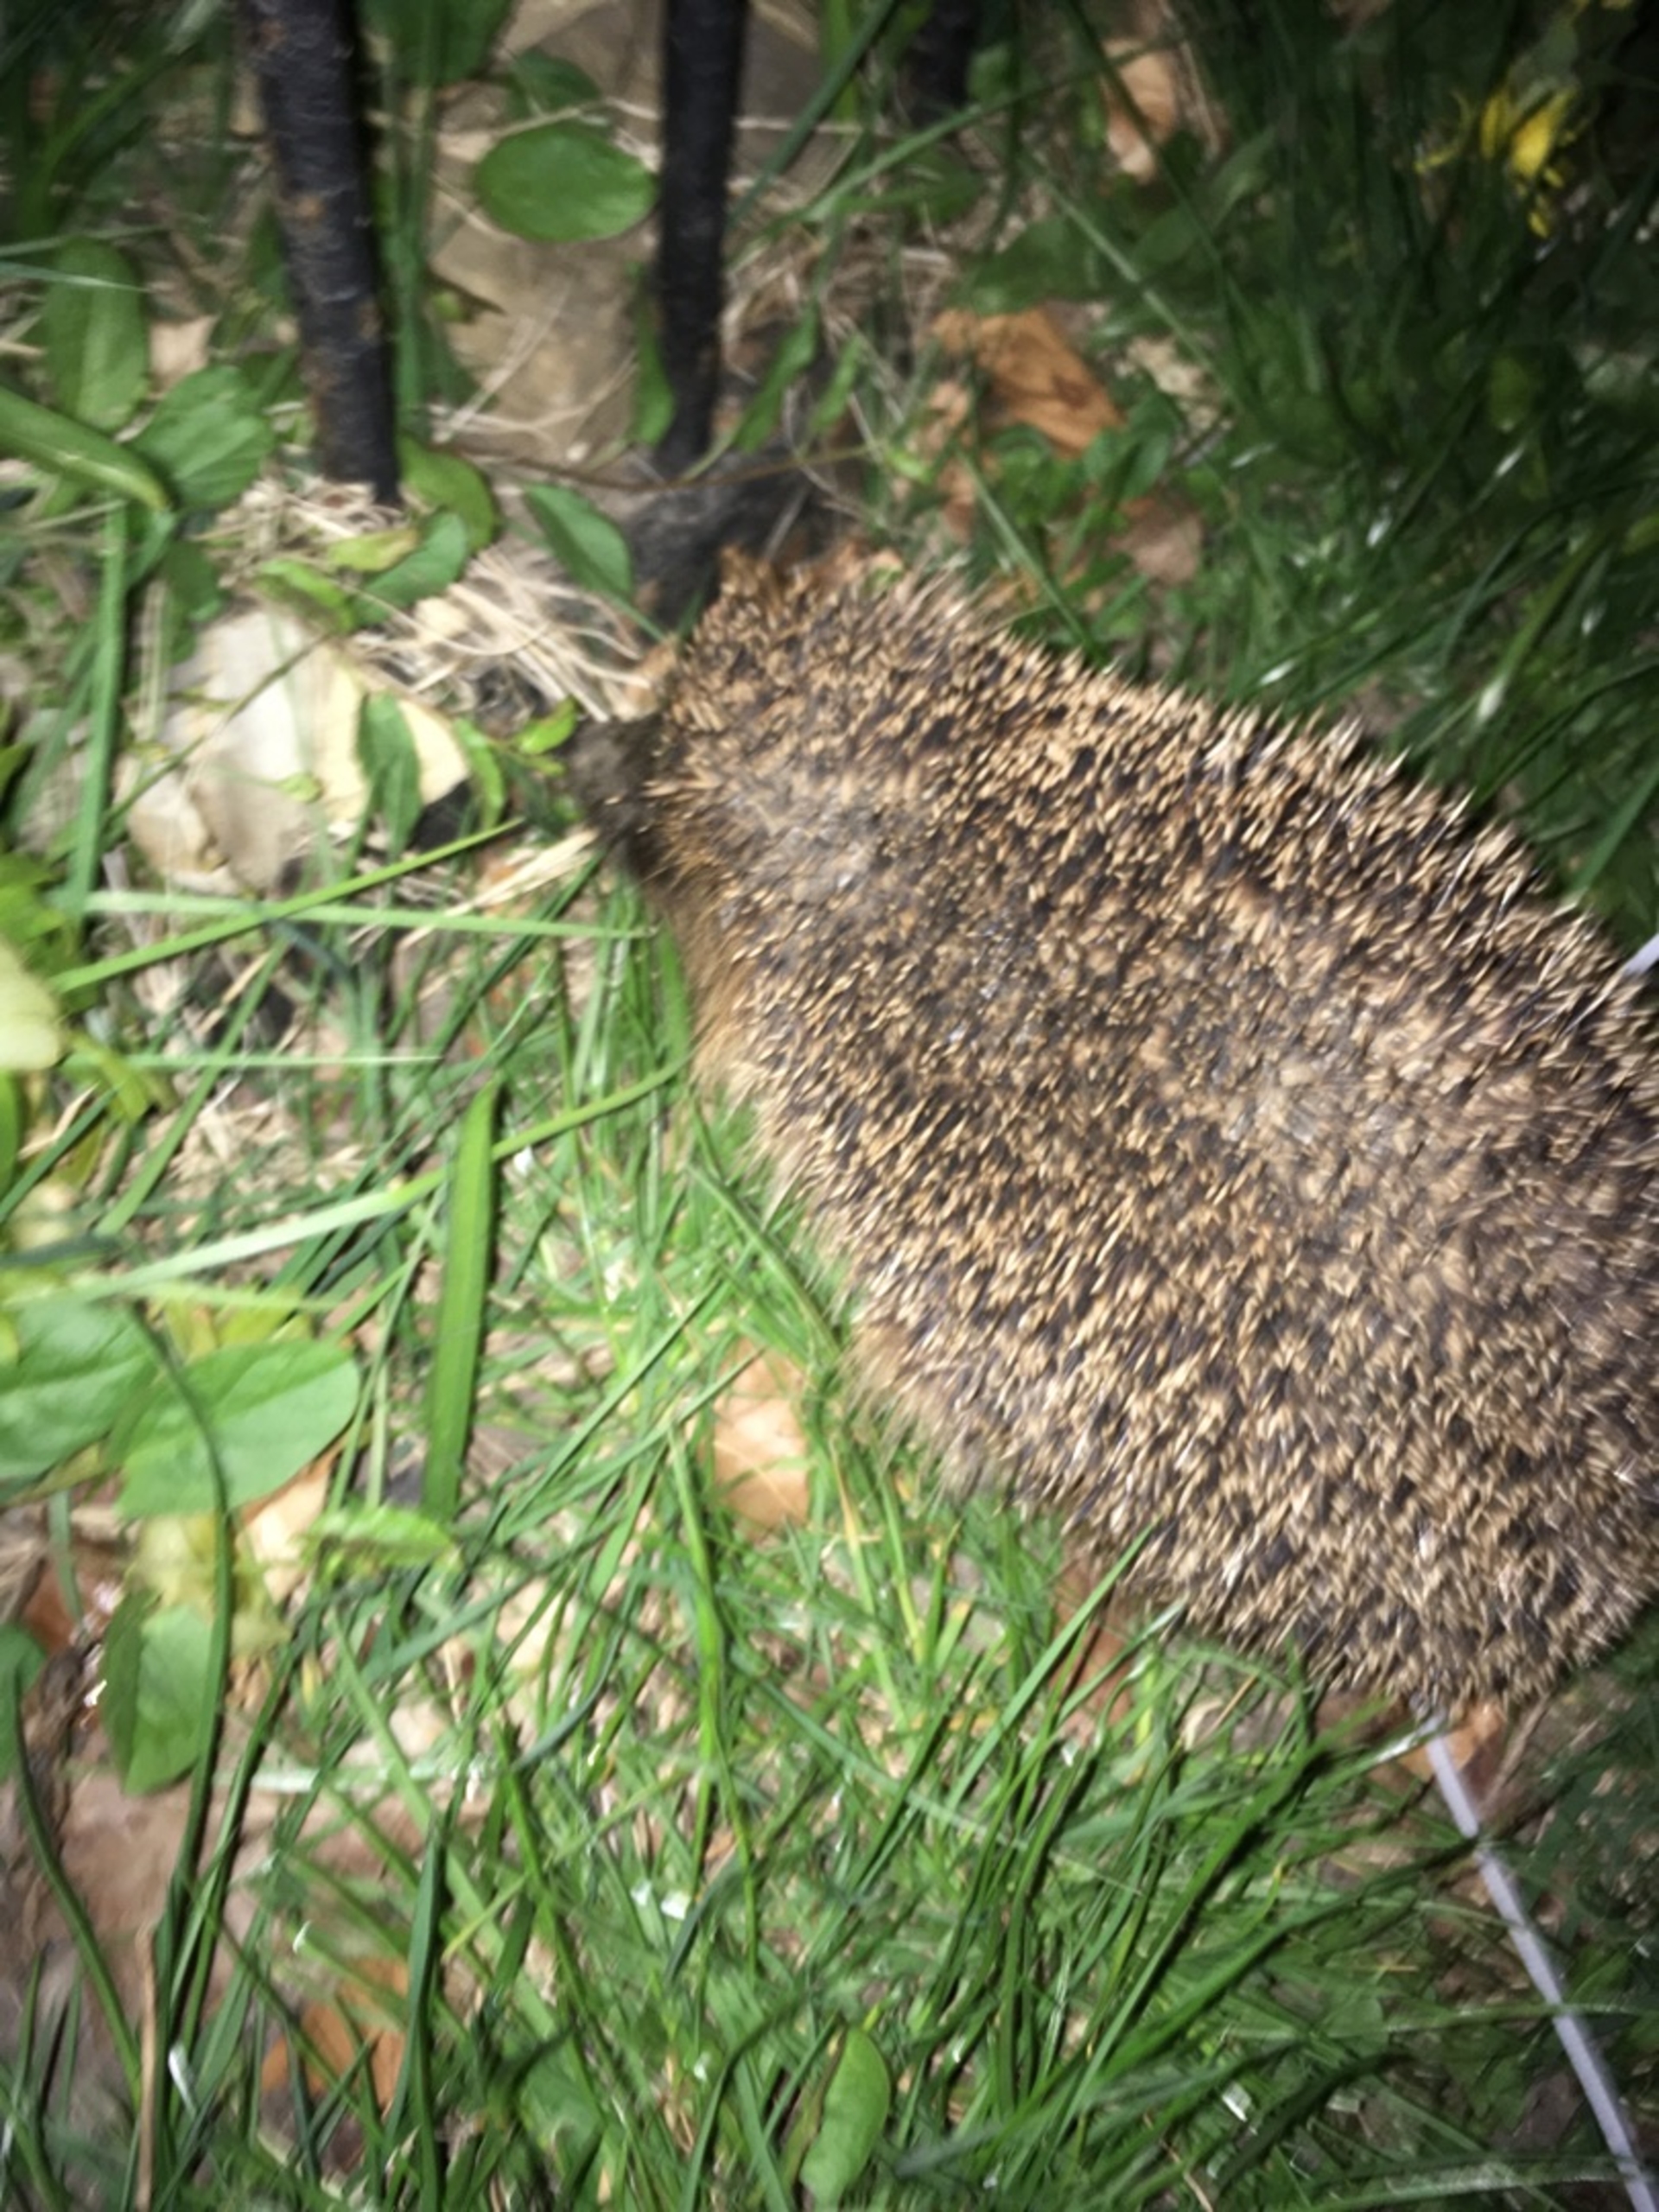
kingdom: Animalia
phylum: Chordata
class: Mammalia
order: Erinaceomorpha
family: Erinaceidae
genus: Erinaceus
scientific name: Erinaceus europaeus
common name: Pindsvin
